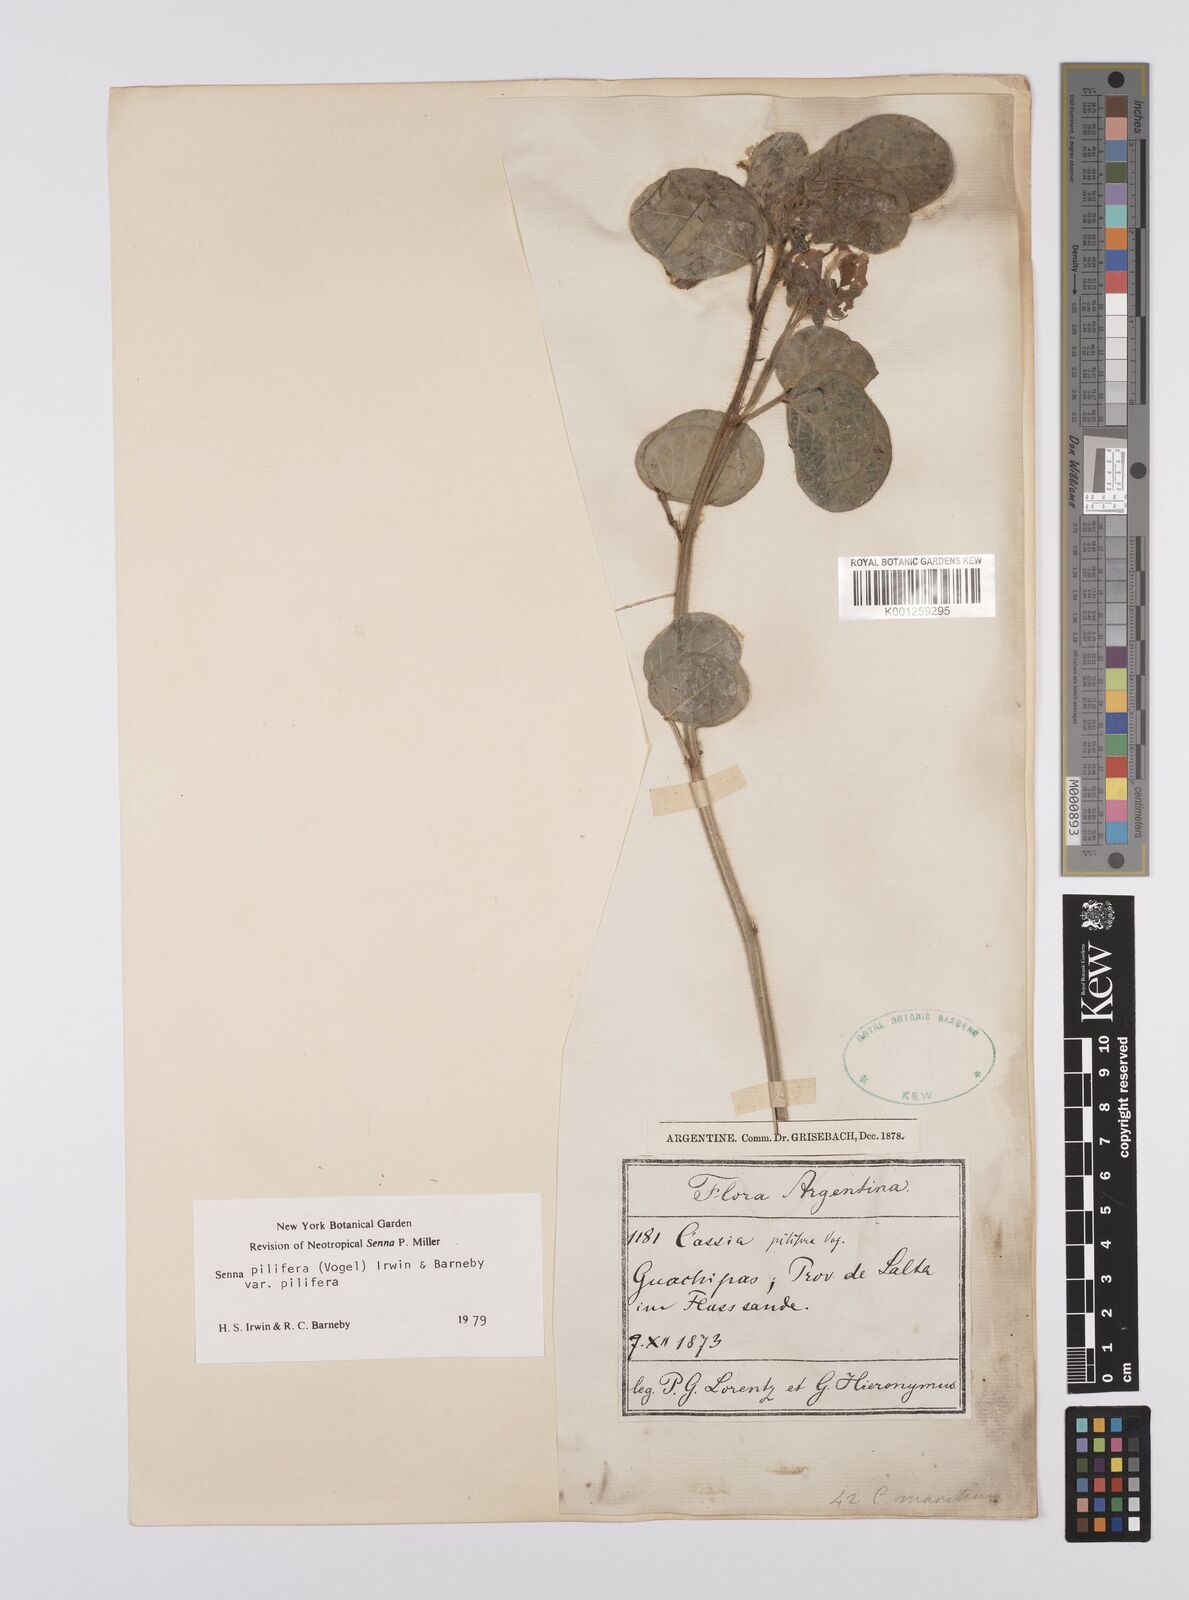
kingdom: Plantae
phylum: Tracheophyta
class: Magnoliopsida
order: Fabales
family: Fabaceae
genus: Senna
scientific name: Senna pilifera
